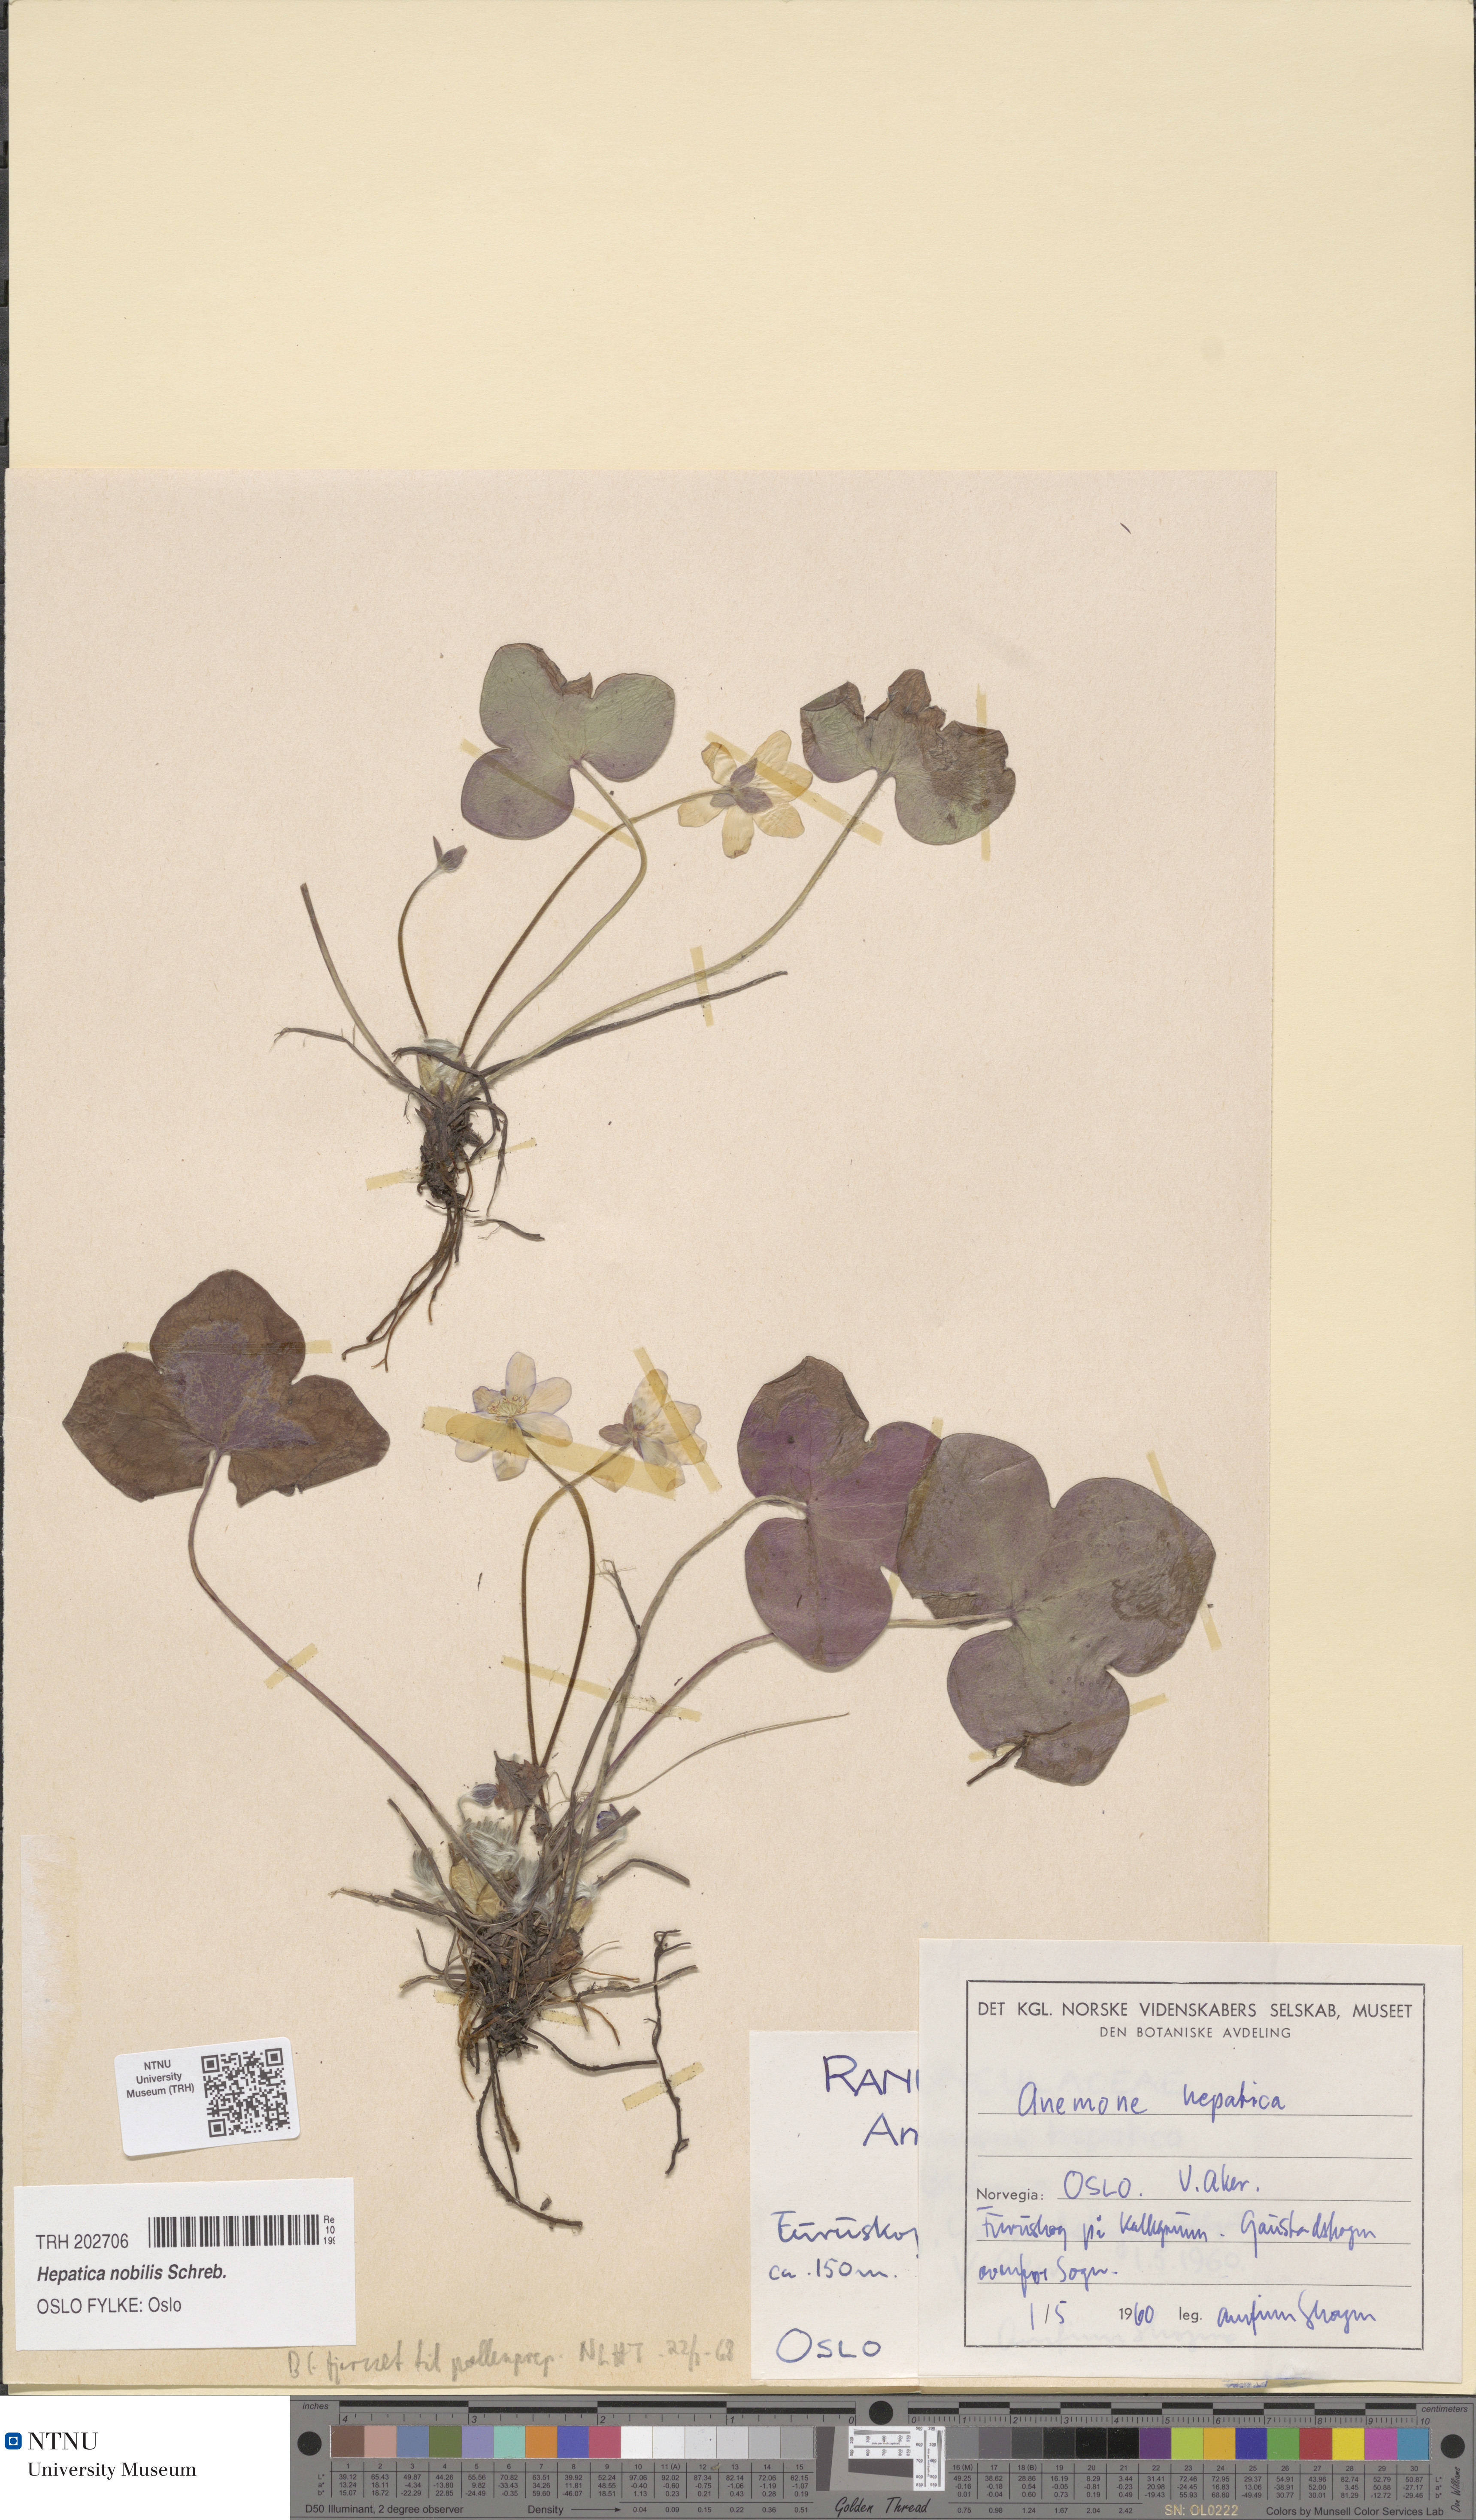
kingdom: Plantae
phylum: Tracheophyta
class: Magnoliopsida
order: Ranunculales
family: Ranunculaceae
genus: Hepatica
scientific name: Hepatica nobilis
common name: Liverleaf
